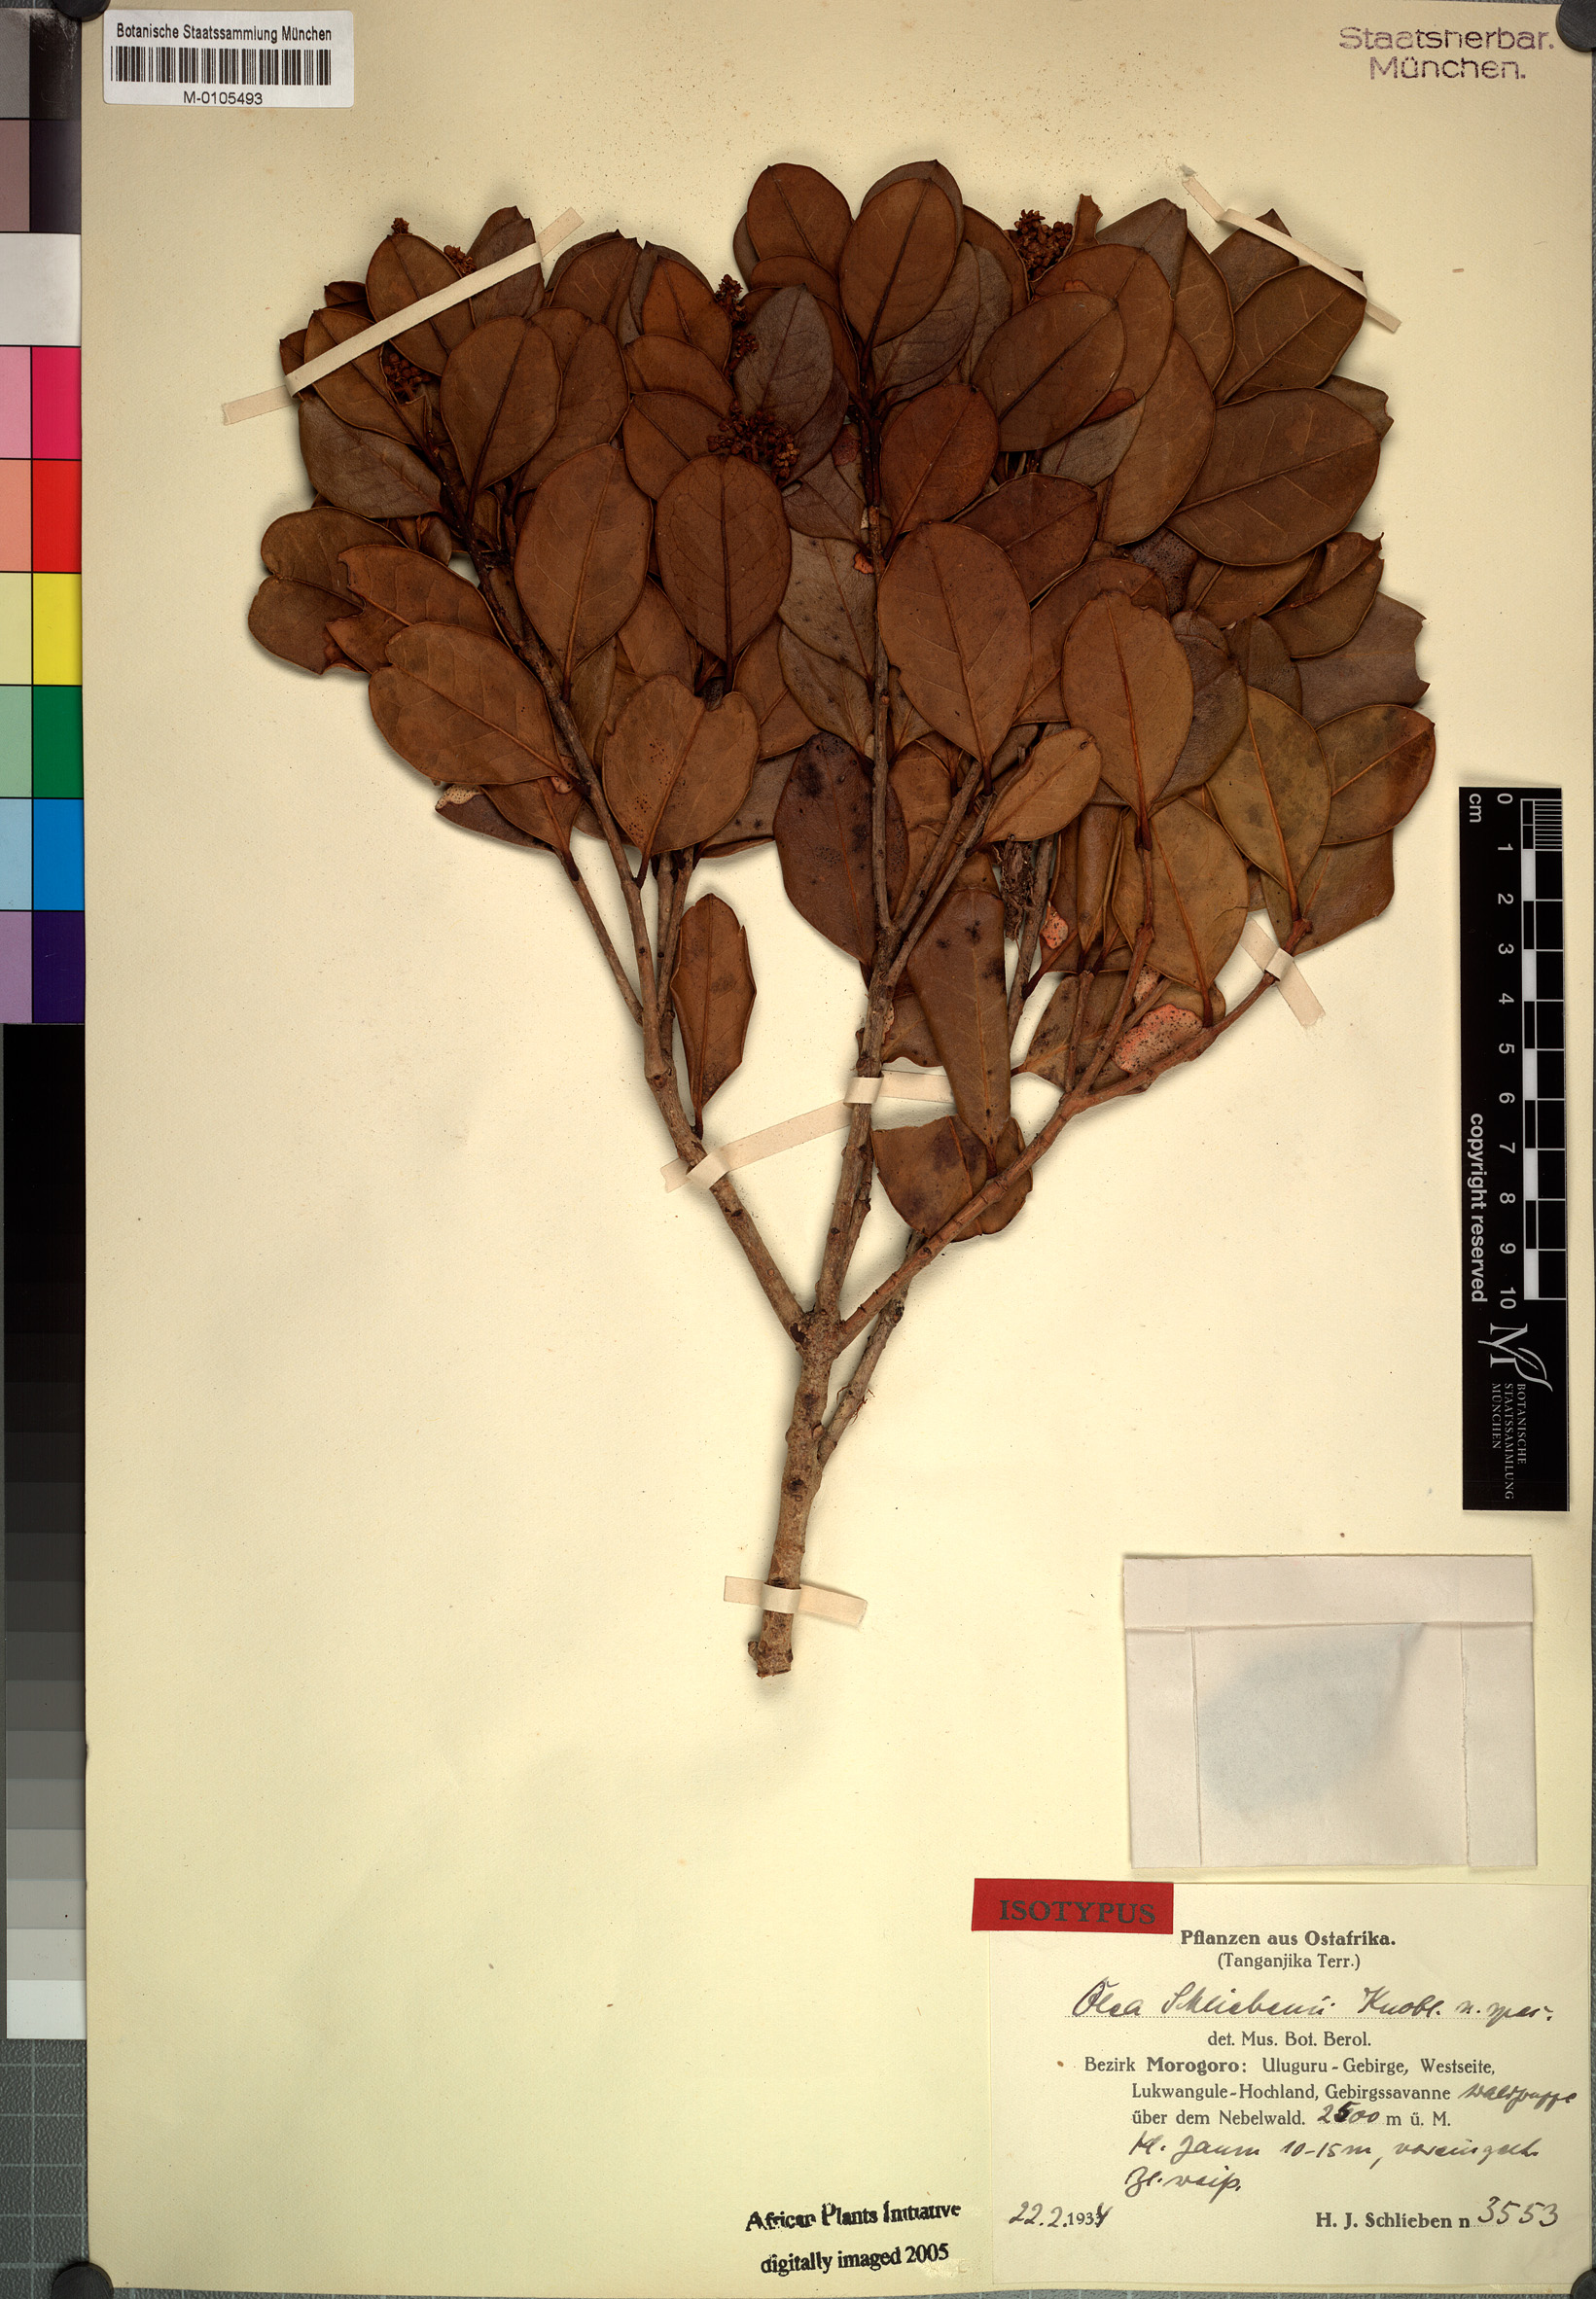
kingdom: Plantae
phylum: Tracheophyta
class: Magnoliopsida
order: Lamiales
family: Oleaceae
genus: Olea
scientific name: Olea schliebenii
